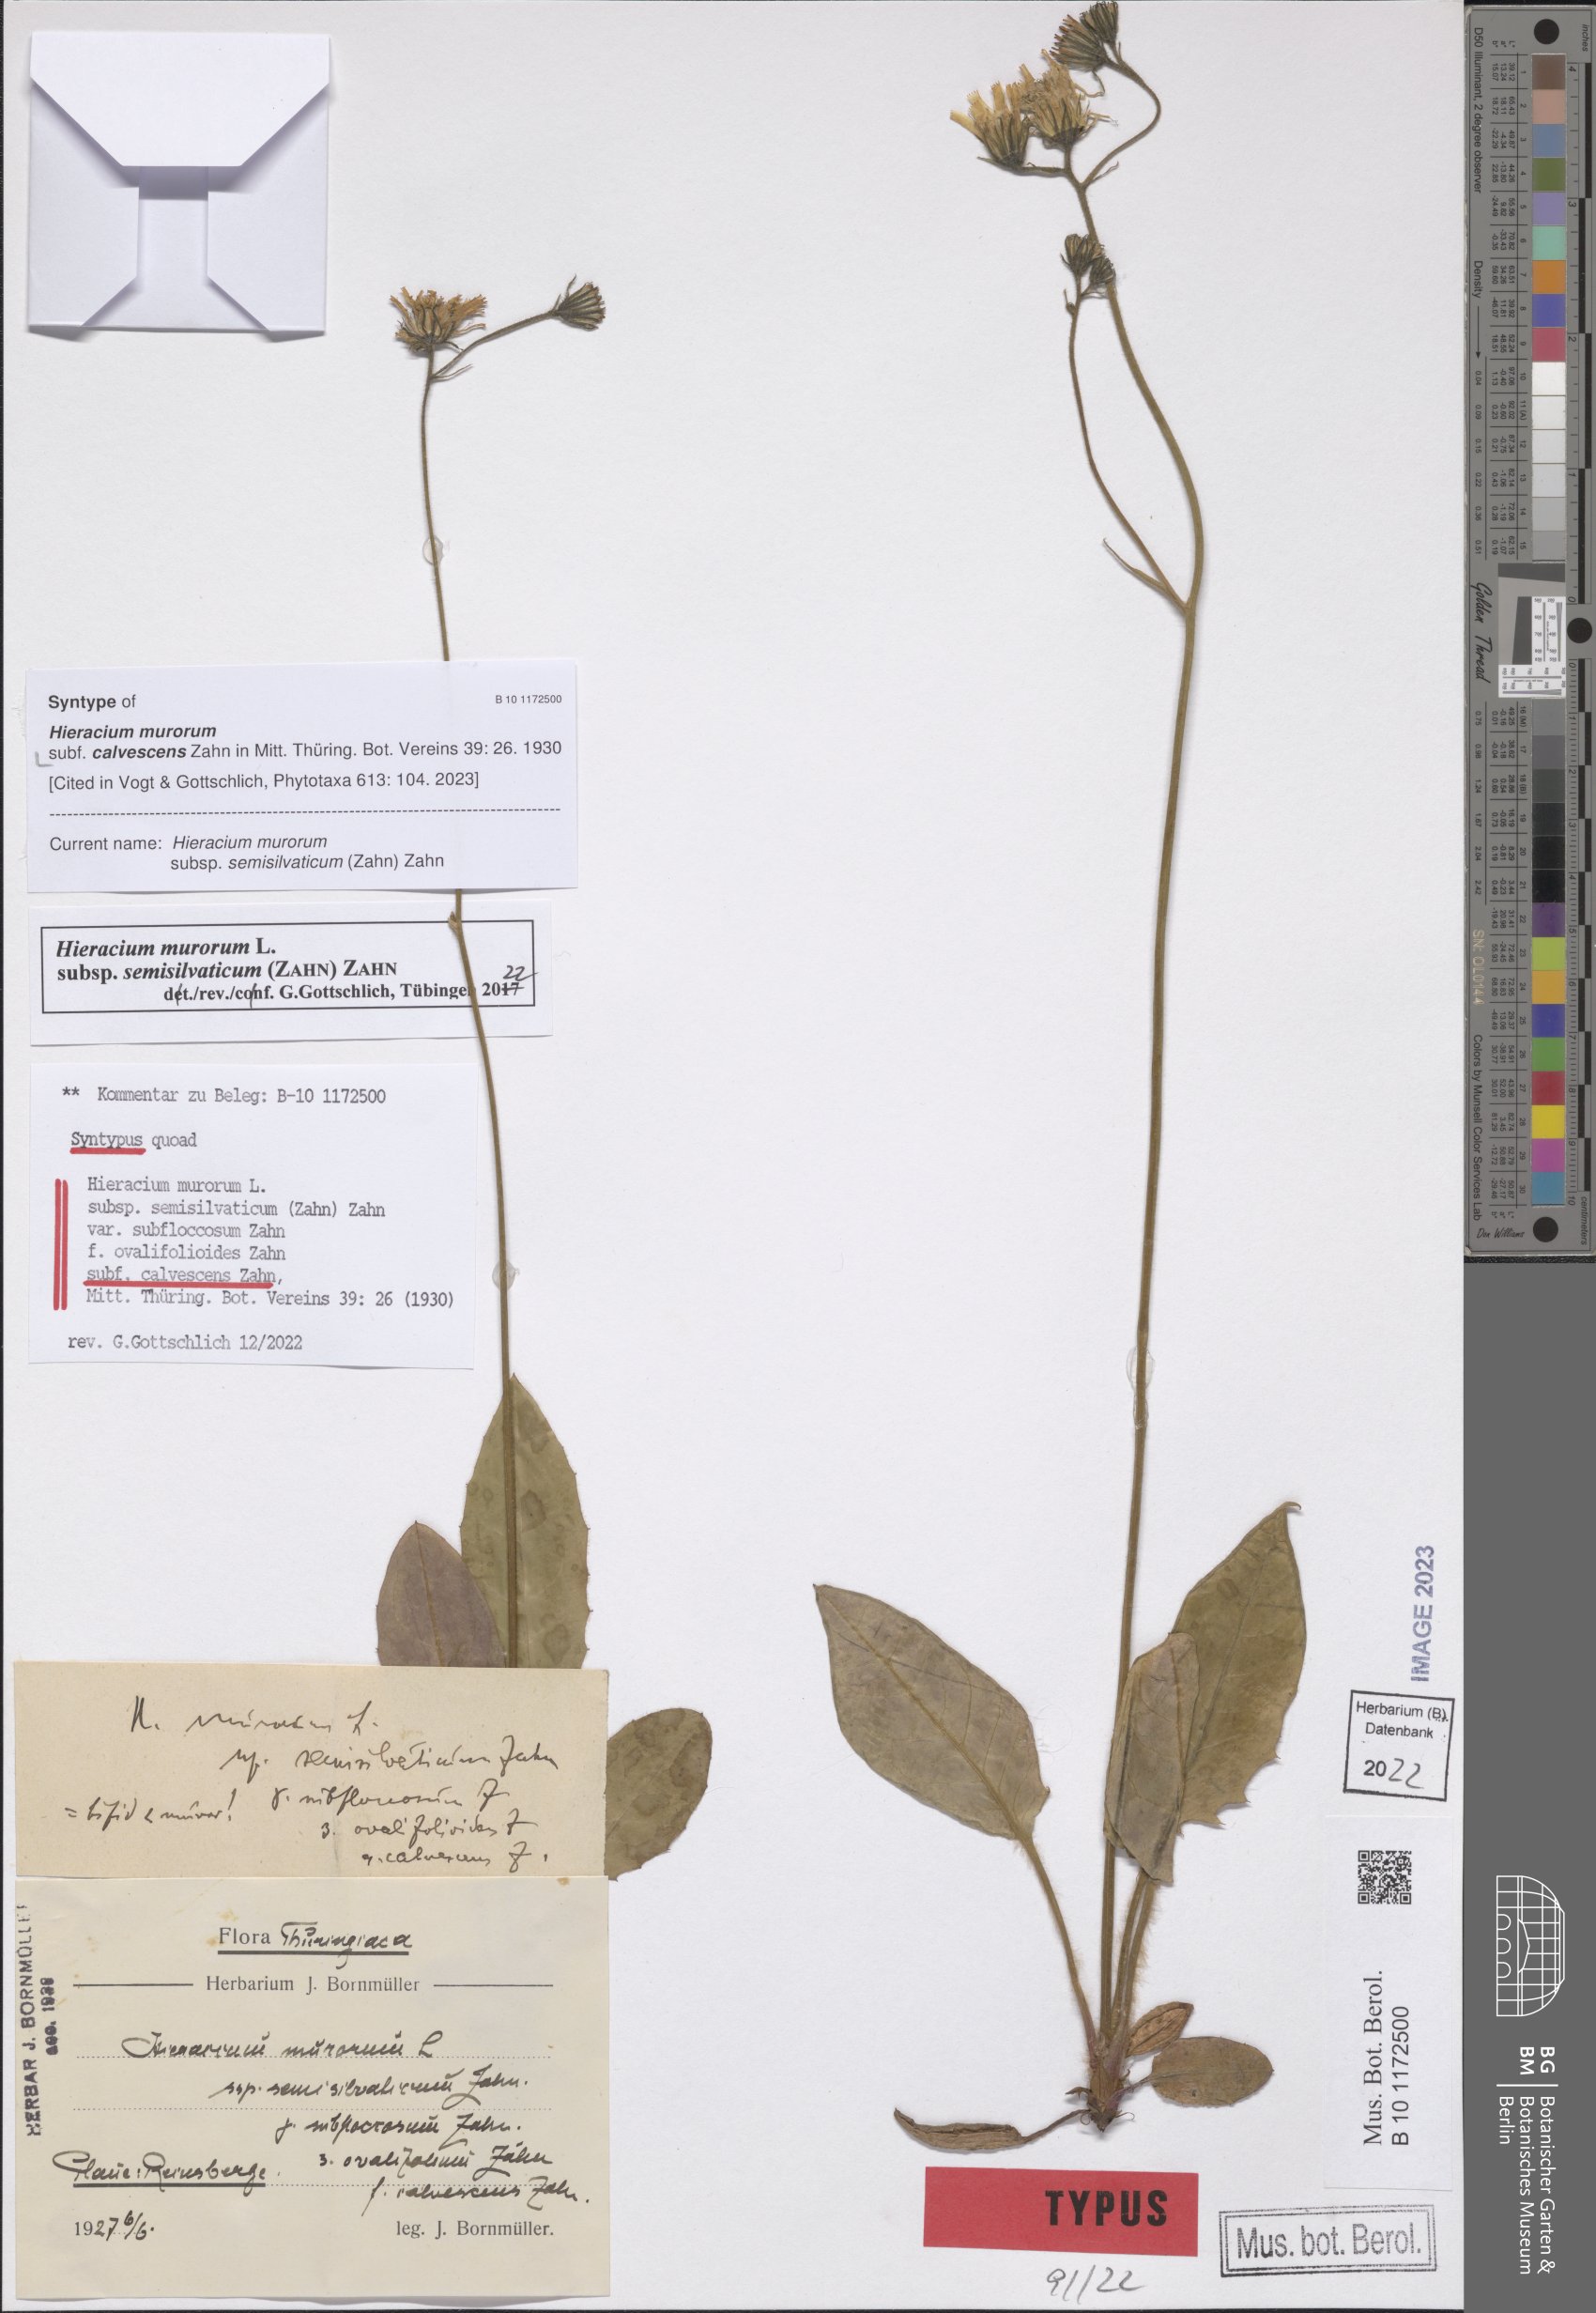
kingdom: Plantae
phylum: Tracheophyta
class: Magnoliopsida
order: Asterales
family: Asteraceae
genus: Hieracium
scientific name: Hieracium murorum
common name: Wall hawkweed
